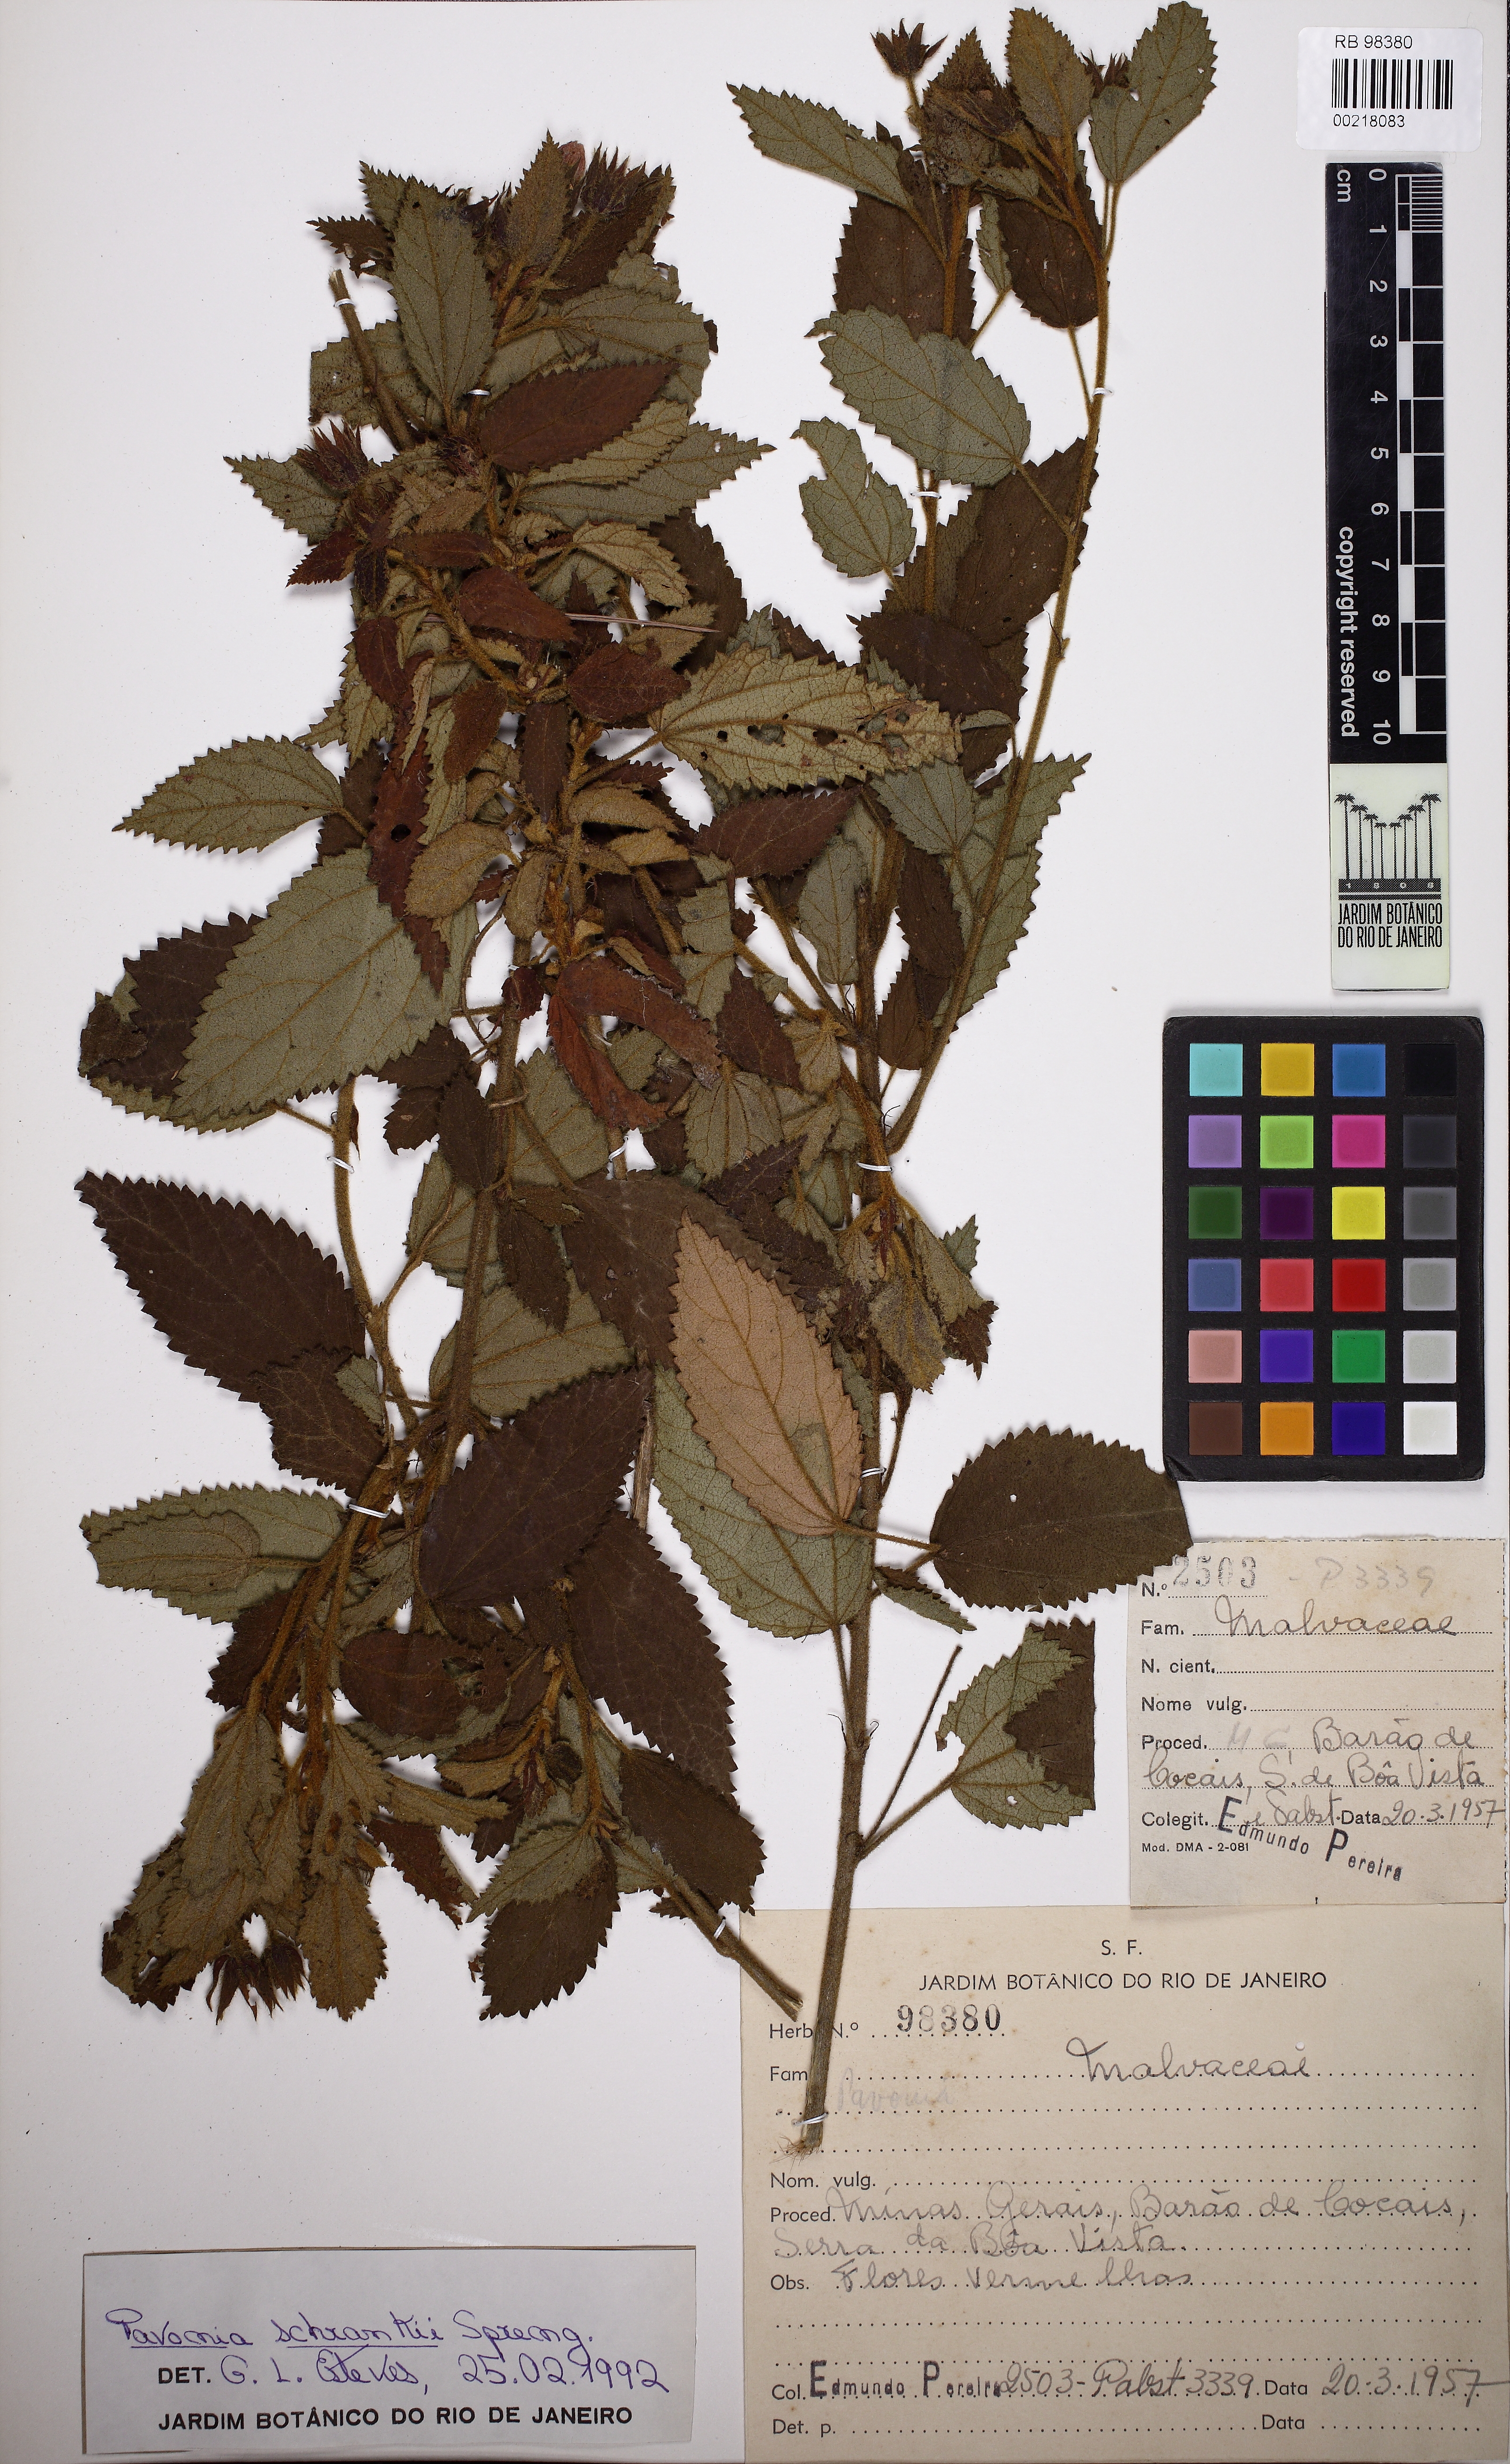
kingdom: Plantae
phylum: Tracheophyta
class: Magnoliopsida
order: Malvales
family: Malvaceae
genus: Pavonia
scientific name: Pavonia schrankii
